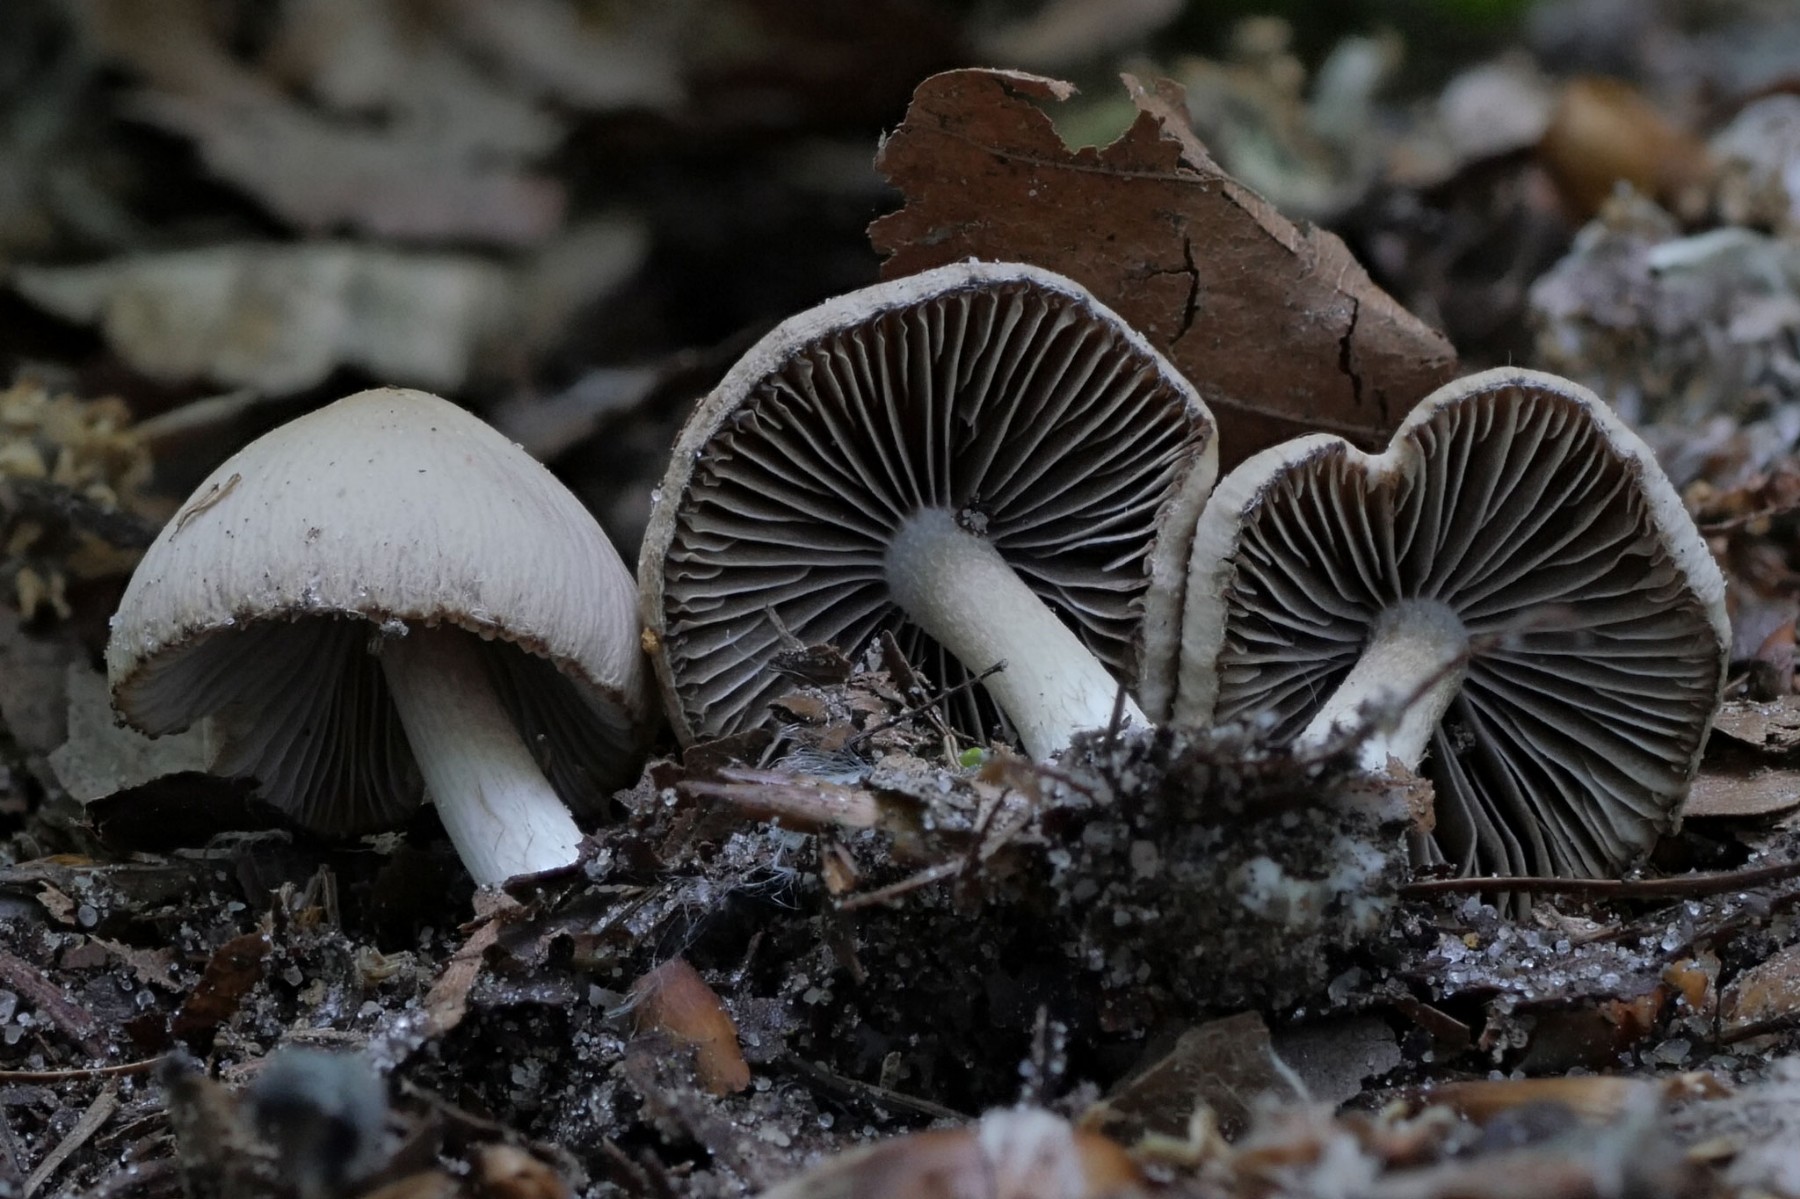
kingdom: Fungi
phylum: Basidiomycota
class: Agaricomycetes
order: Agaricales
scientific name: Agaricales
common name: champignonordenen
